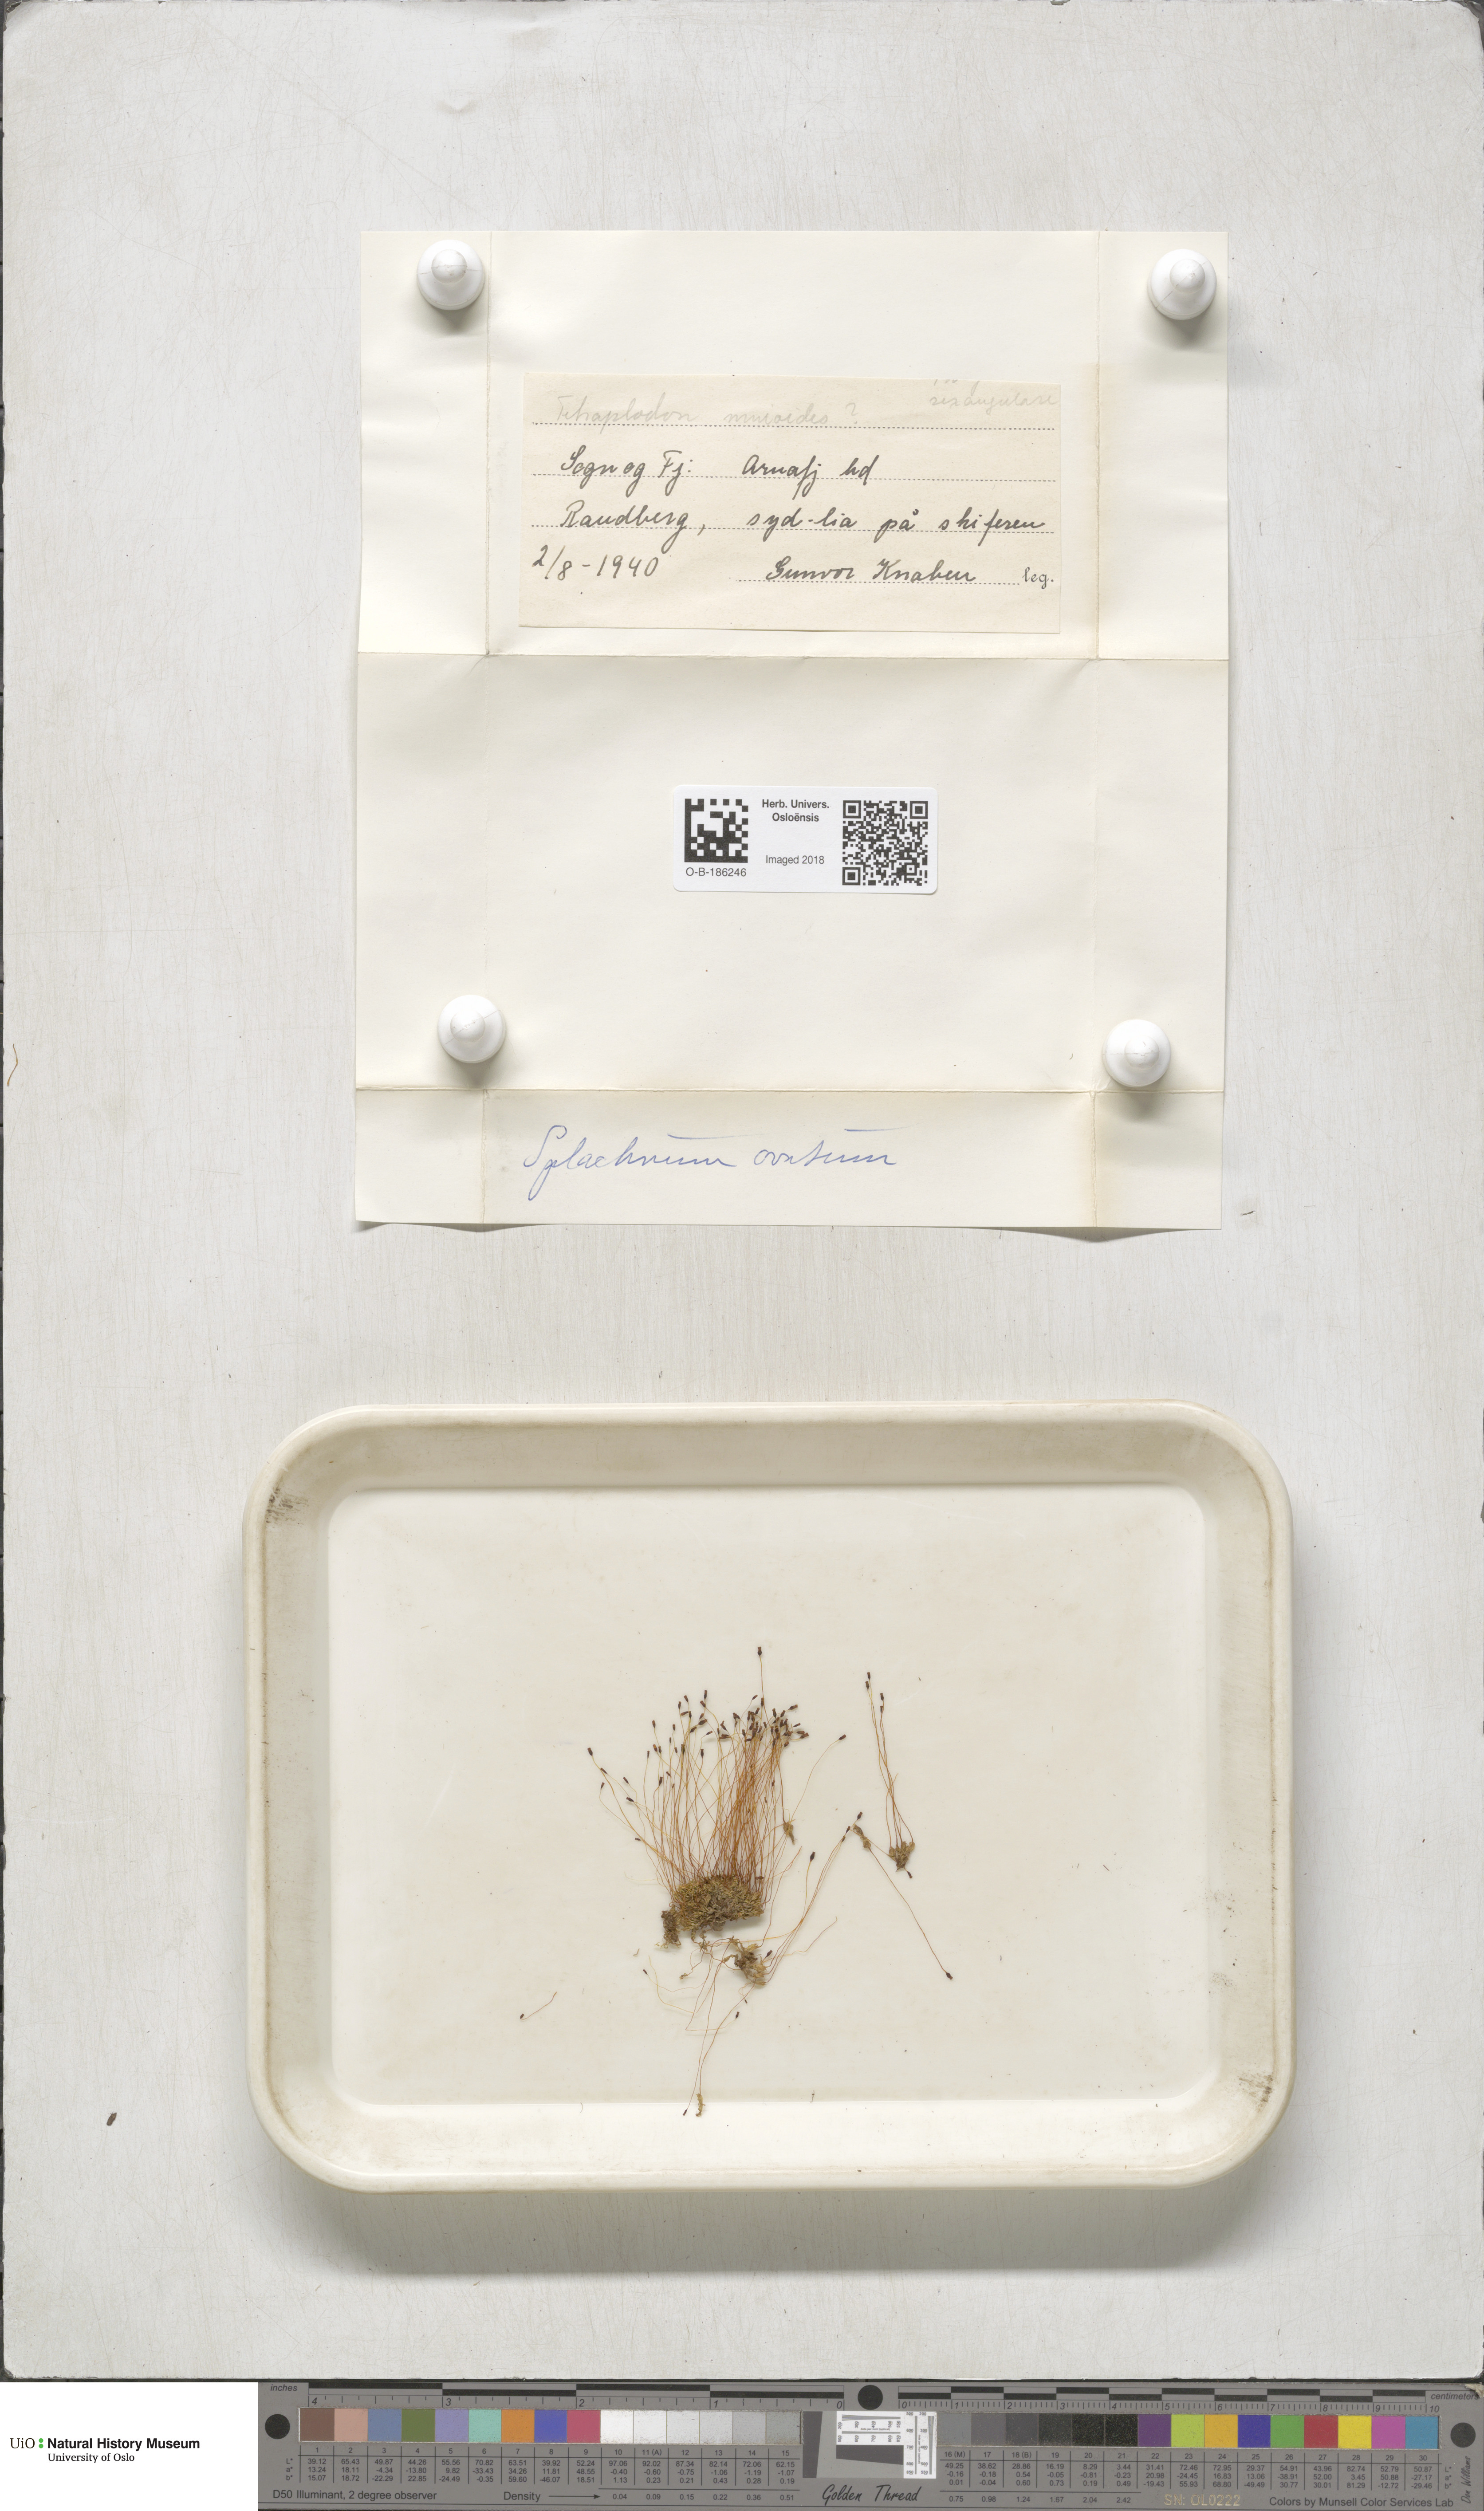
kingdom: Plantae
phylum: Bryophyta
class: Bryopsida
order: Splachnales
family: Splachnaceae
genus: Splachnum
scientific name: Splachnum sphaericum
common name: Round-fruited dung moss
